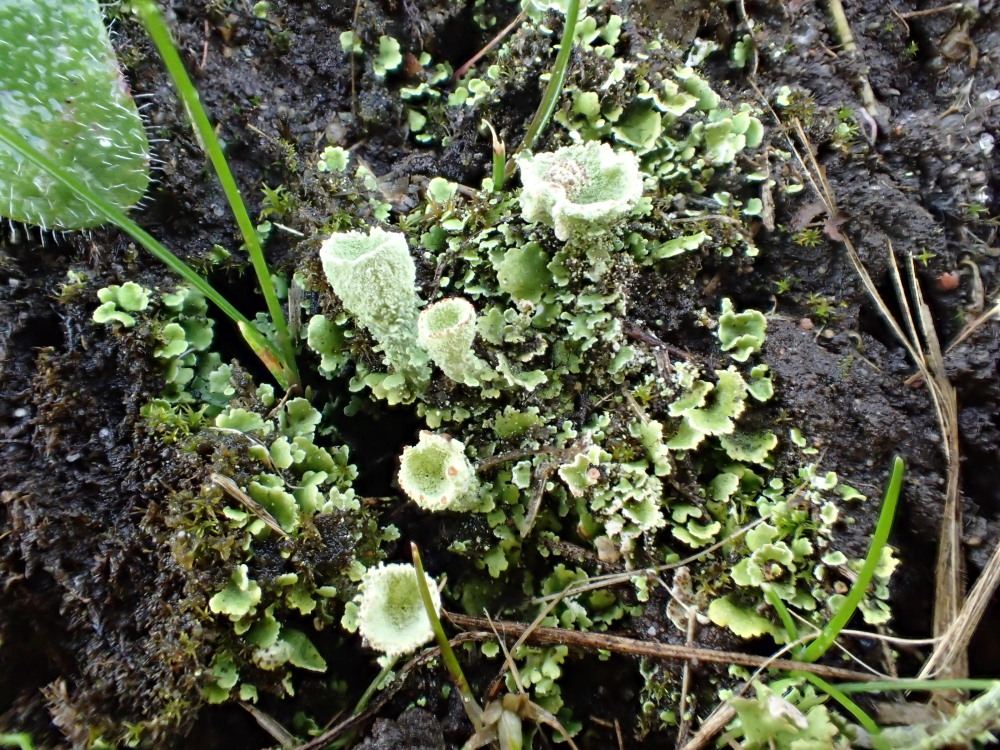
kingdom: Fungi
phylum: Ascomycota
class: Lecanoromycetes
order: Lecanorales
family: Cladoniaceae
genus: Cladonia
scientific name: Cladonia humilis
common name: lav bægerlav
